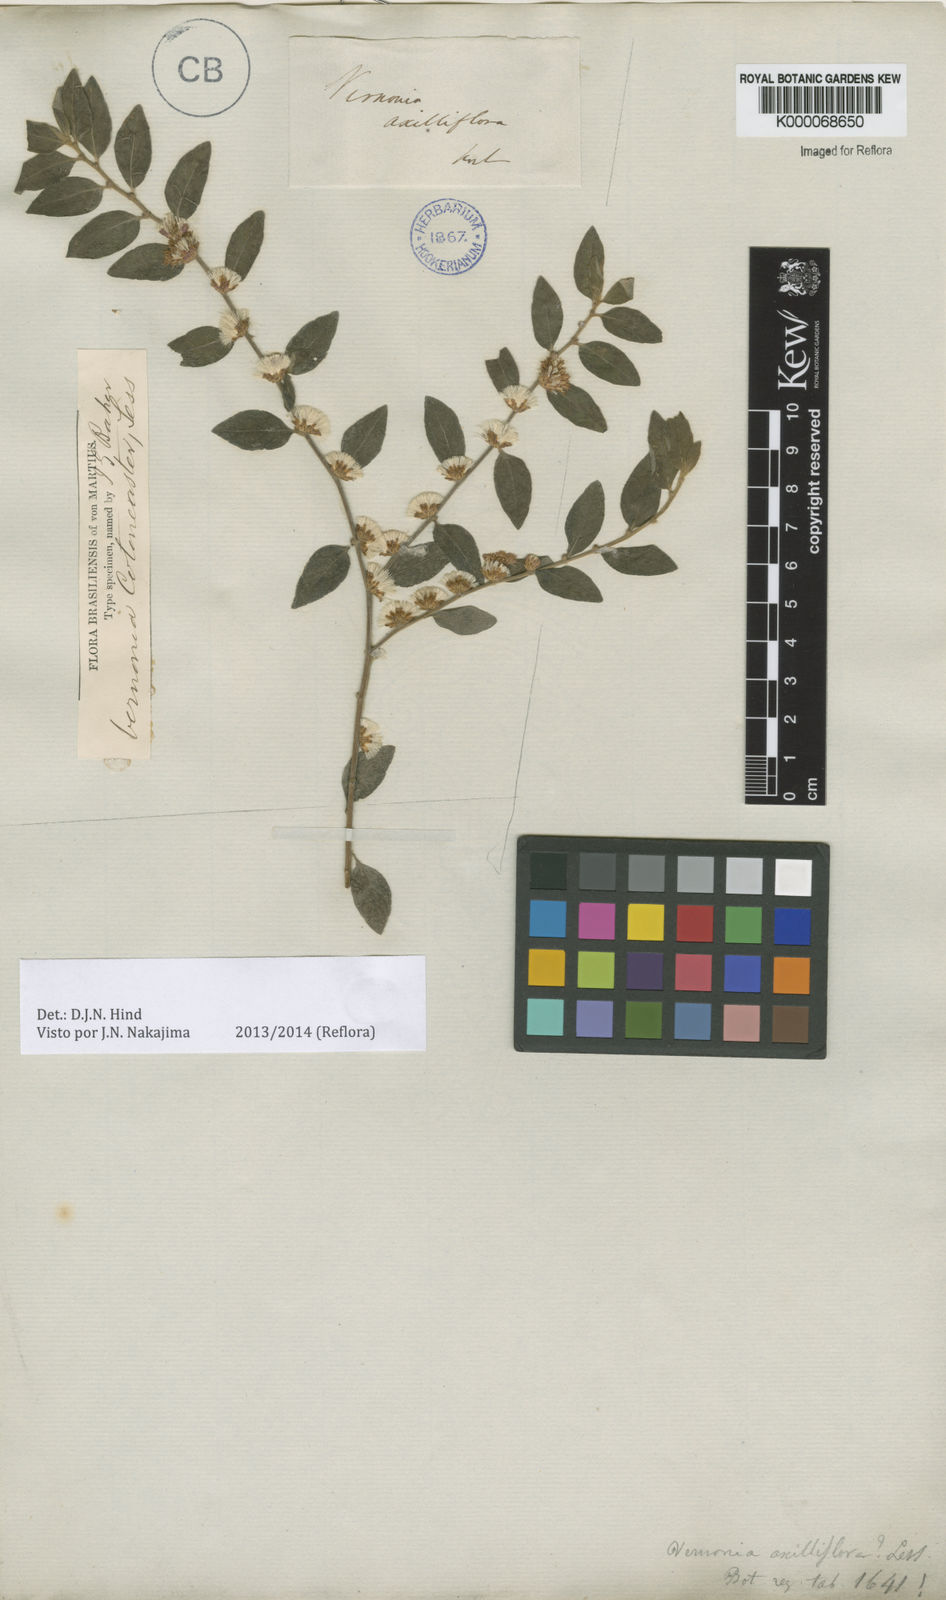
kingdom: Plantae
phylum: Tracheophyta
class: Magnoliopsida
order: Asterales
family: Asteraceae
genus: Lepidaploa
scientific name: Lepidaploa cotoneaster
